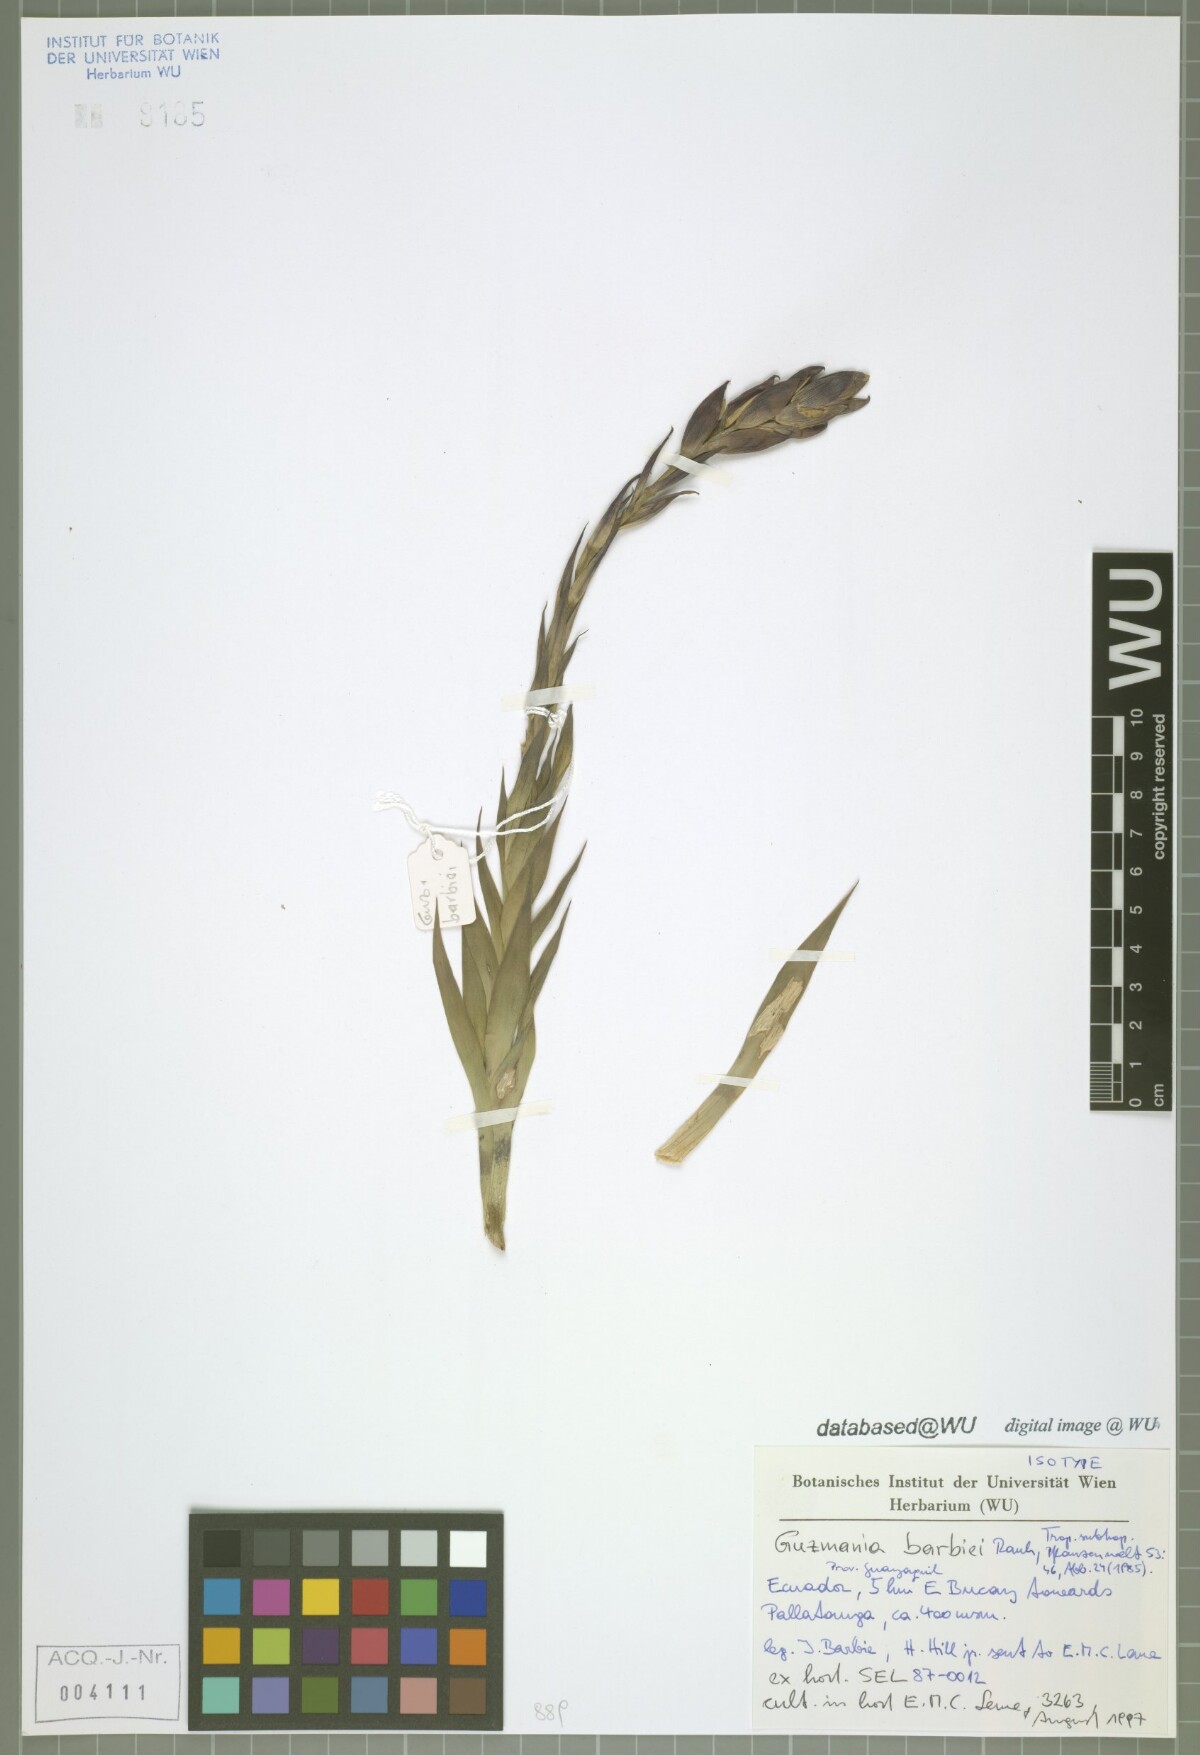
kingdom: Plantae
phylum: Tracheophyta
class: Liliopsida
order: Poales
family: Bromeliaceae
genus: Guzlandsia
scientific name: Guzlandsia barbiei
